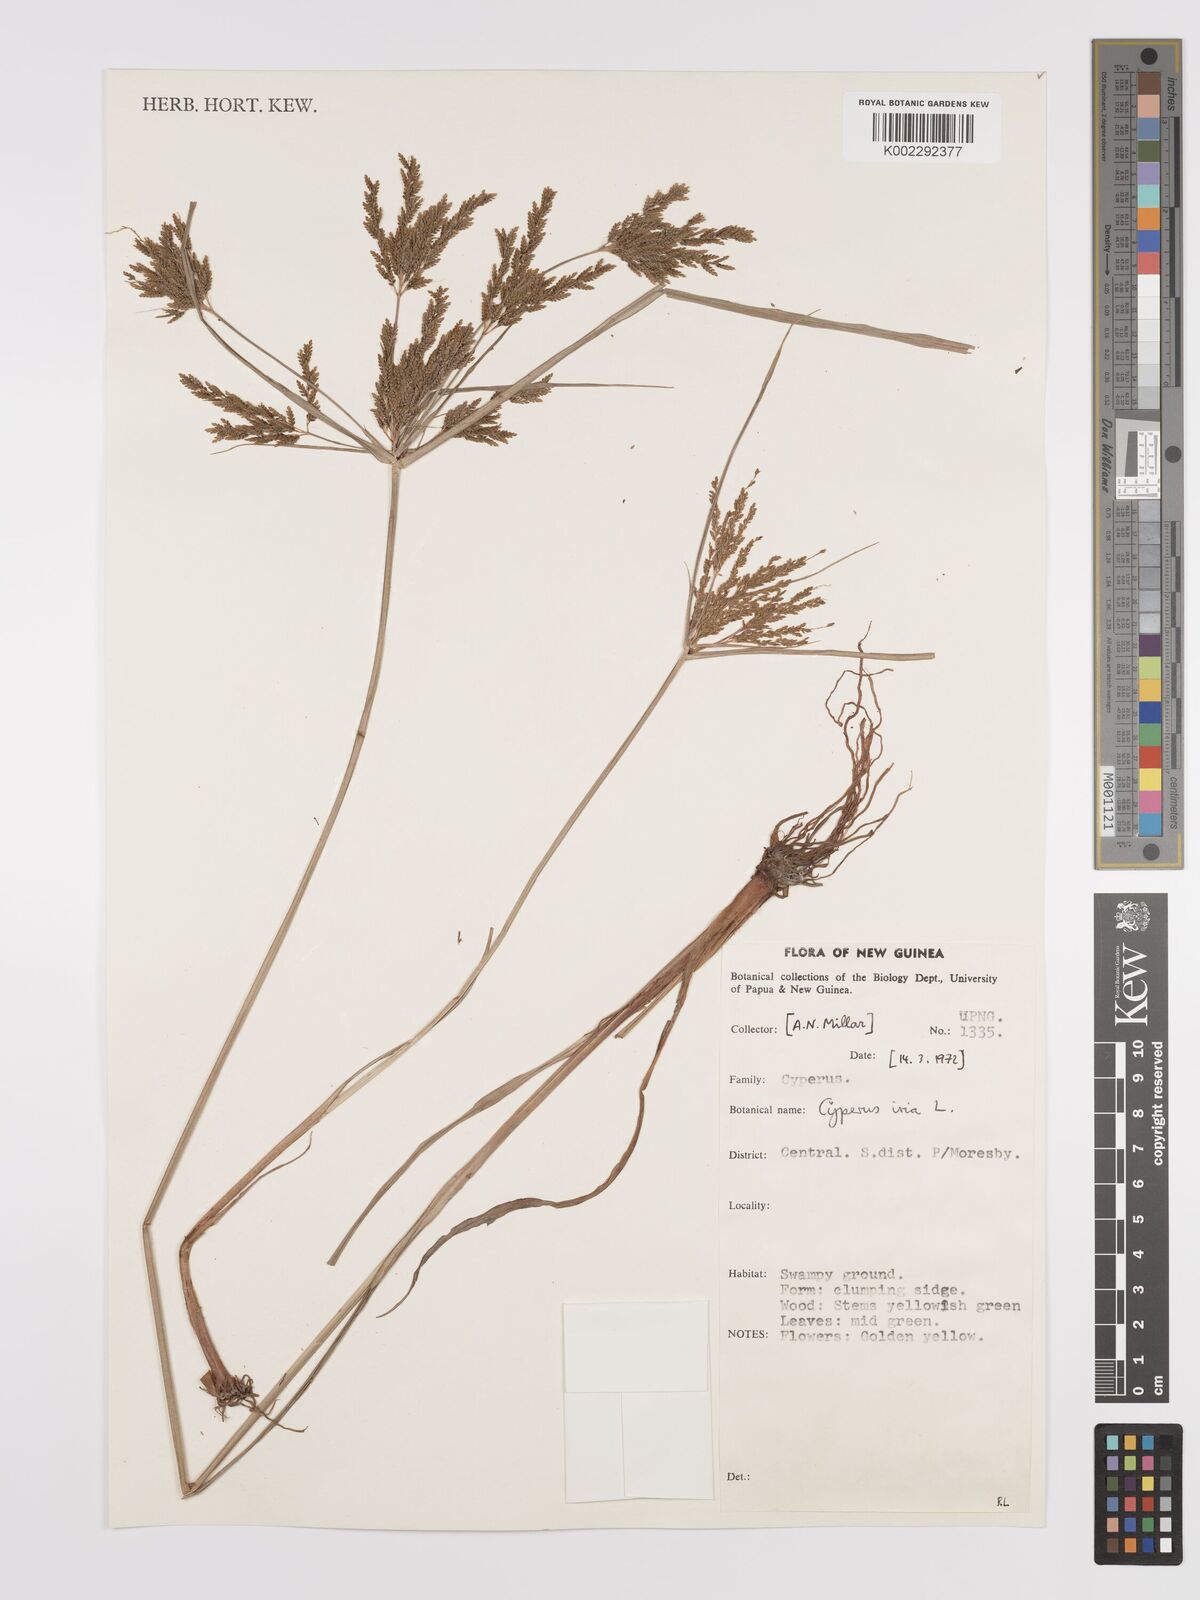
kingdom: Plantae
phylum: Tracheophyta
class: Liliopsida
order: Poales
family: Cyperaceae
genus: Cyperus
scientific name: Cyperus iria
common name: Ricefield flatsedge
